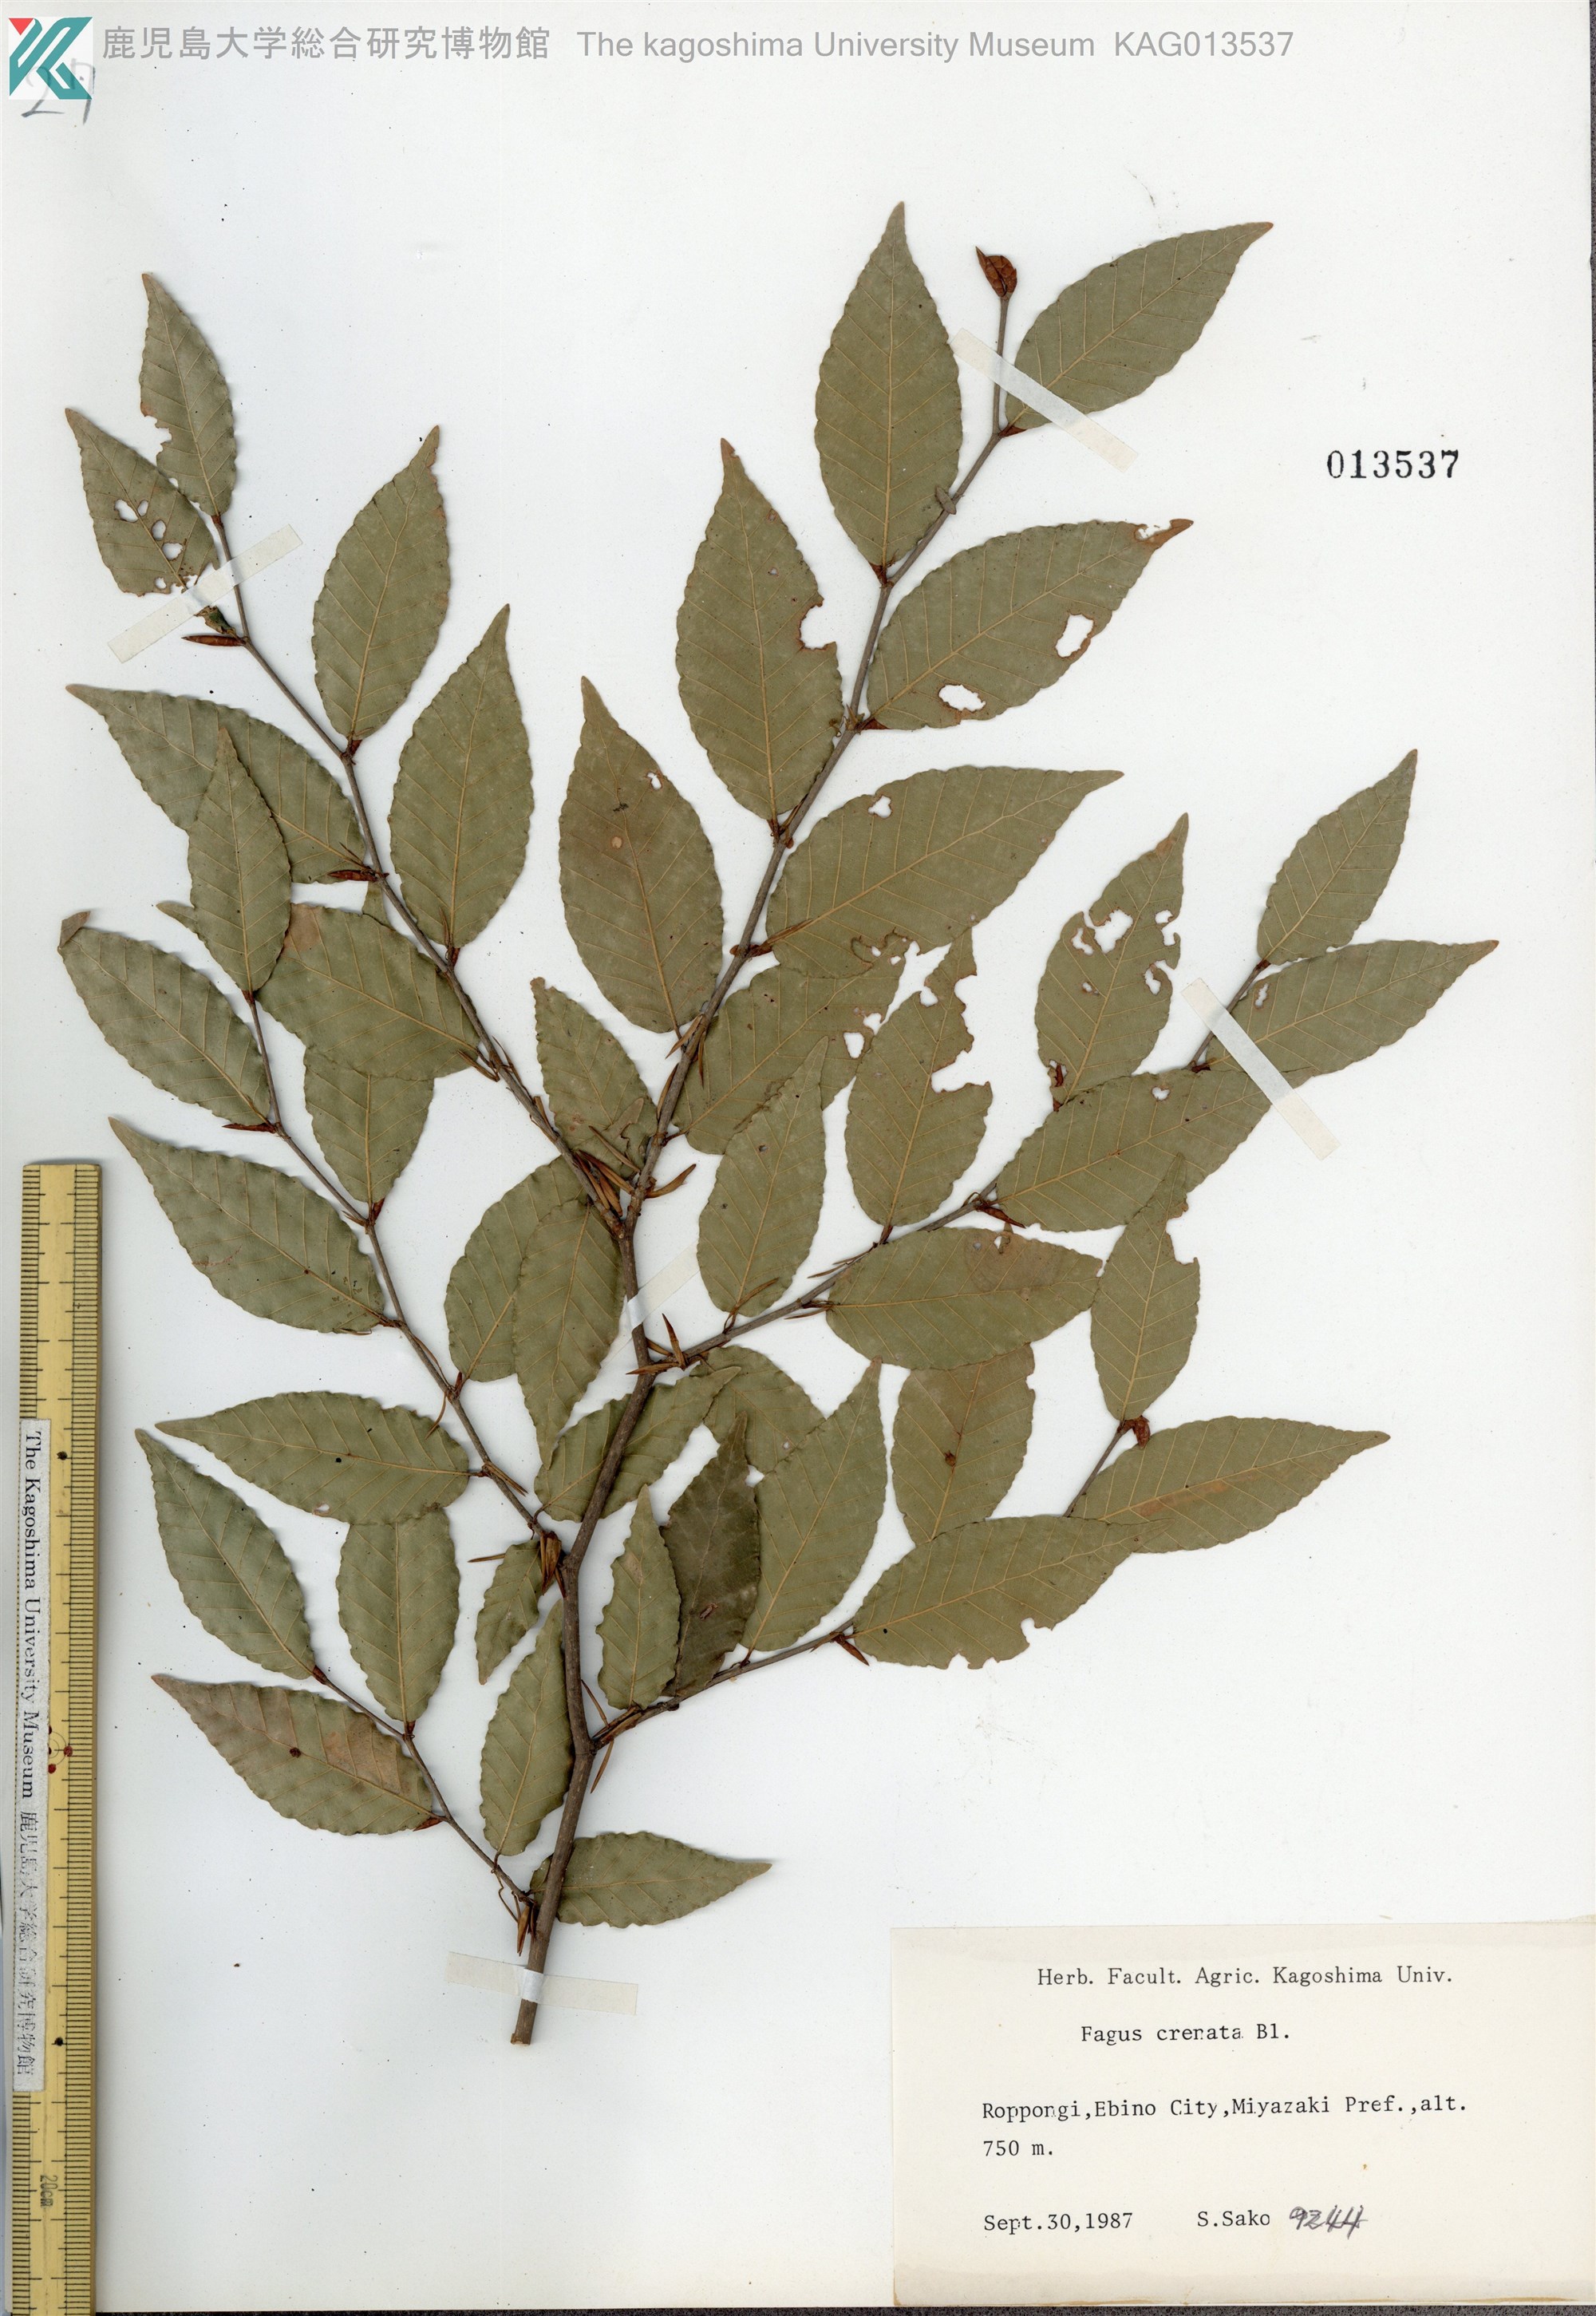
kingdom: Plantae
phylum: Tracheophyta
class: Magnoliopsida
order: Fagales
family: Fagaceae
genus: Fagus
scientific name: Fagus crenata
